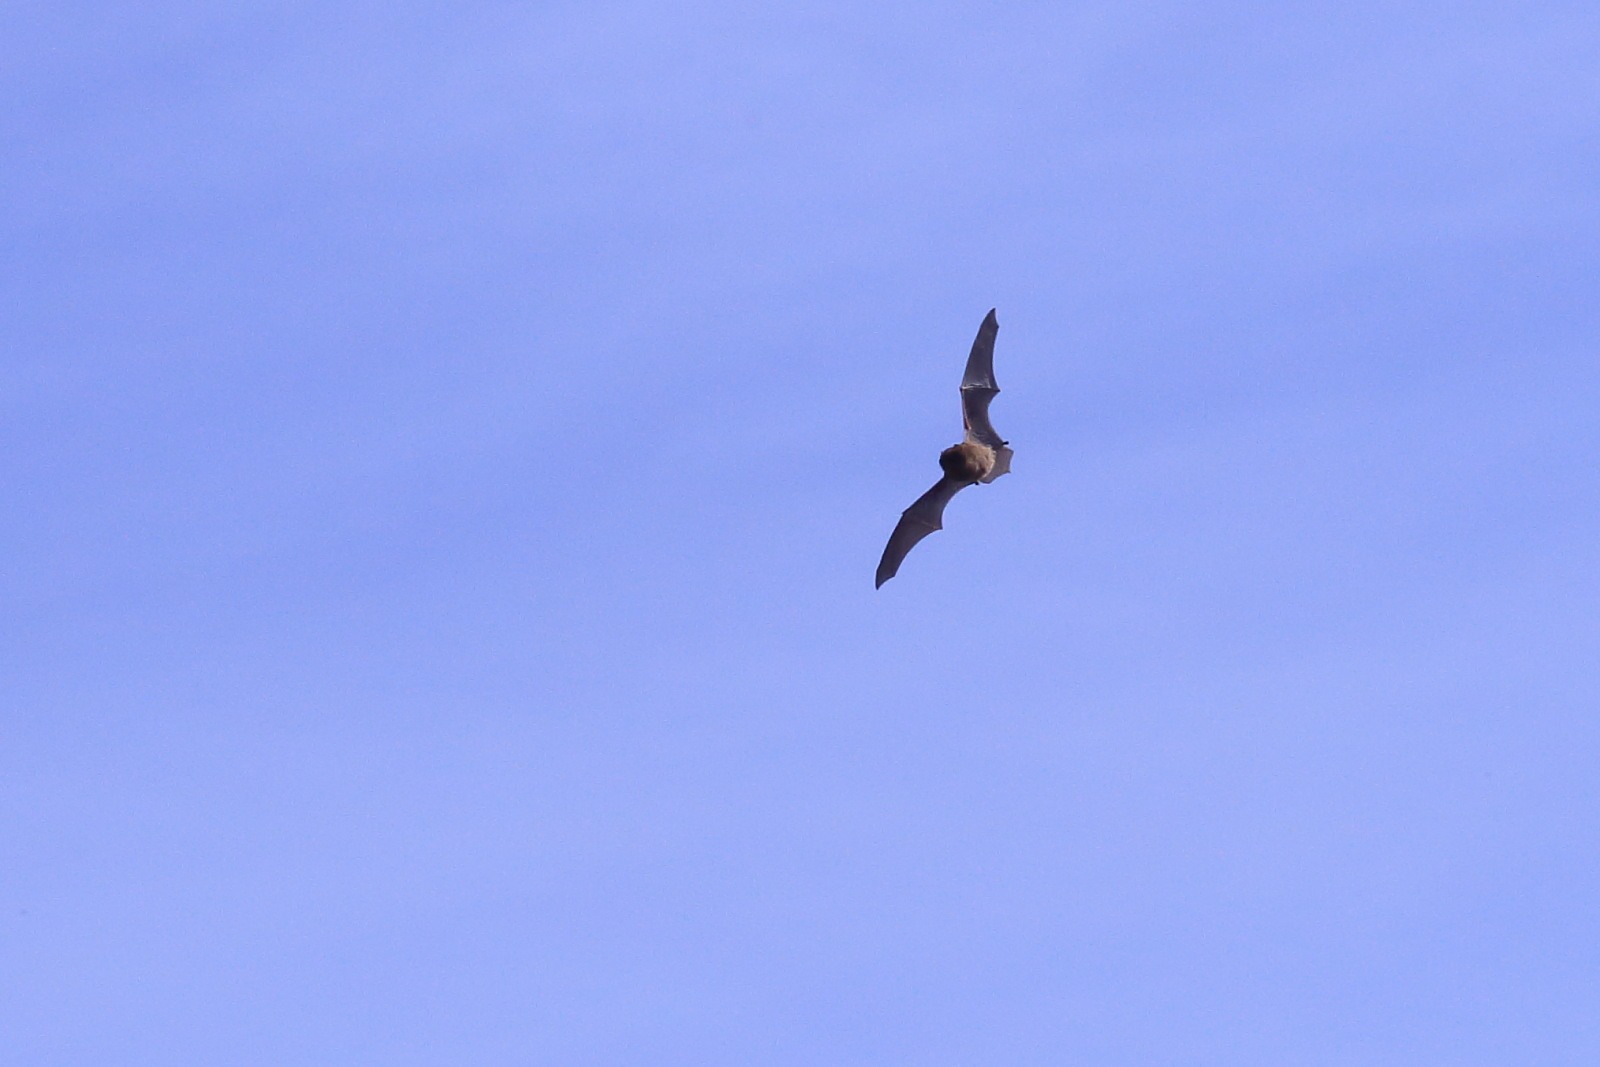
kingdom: Animalia
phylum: Chordata
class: Mammalia
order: Chiroptera
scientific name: Chiroptera
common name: Flagermus
